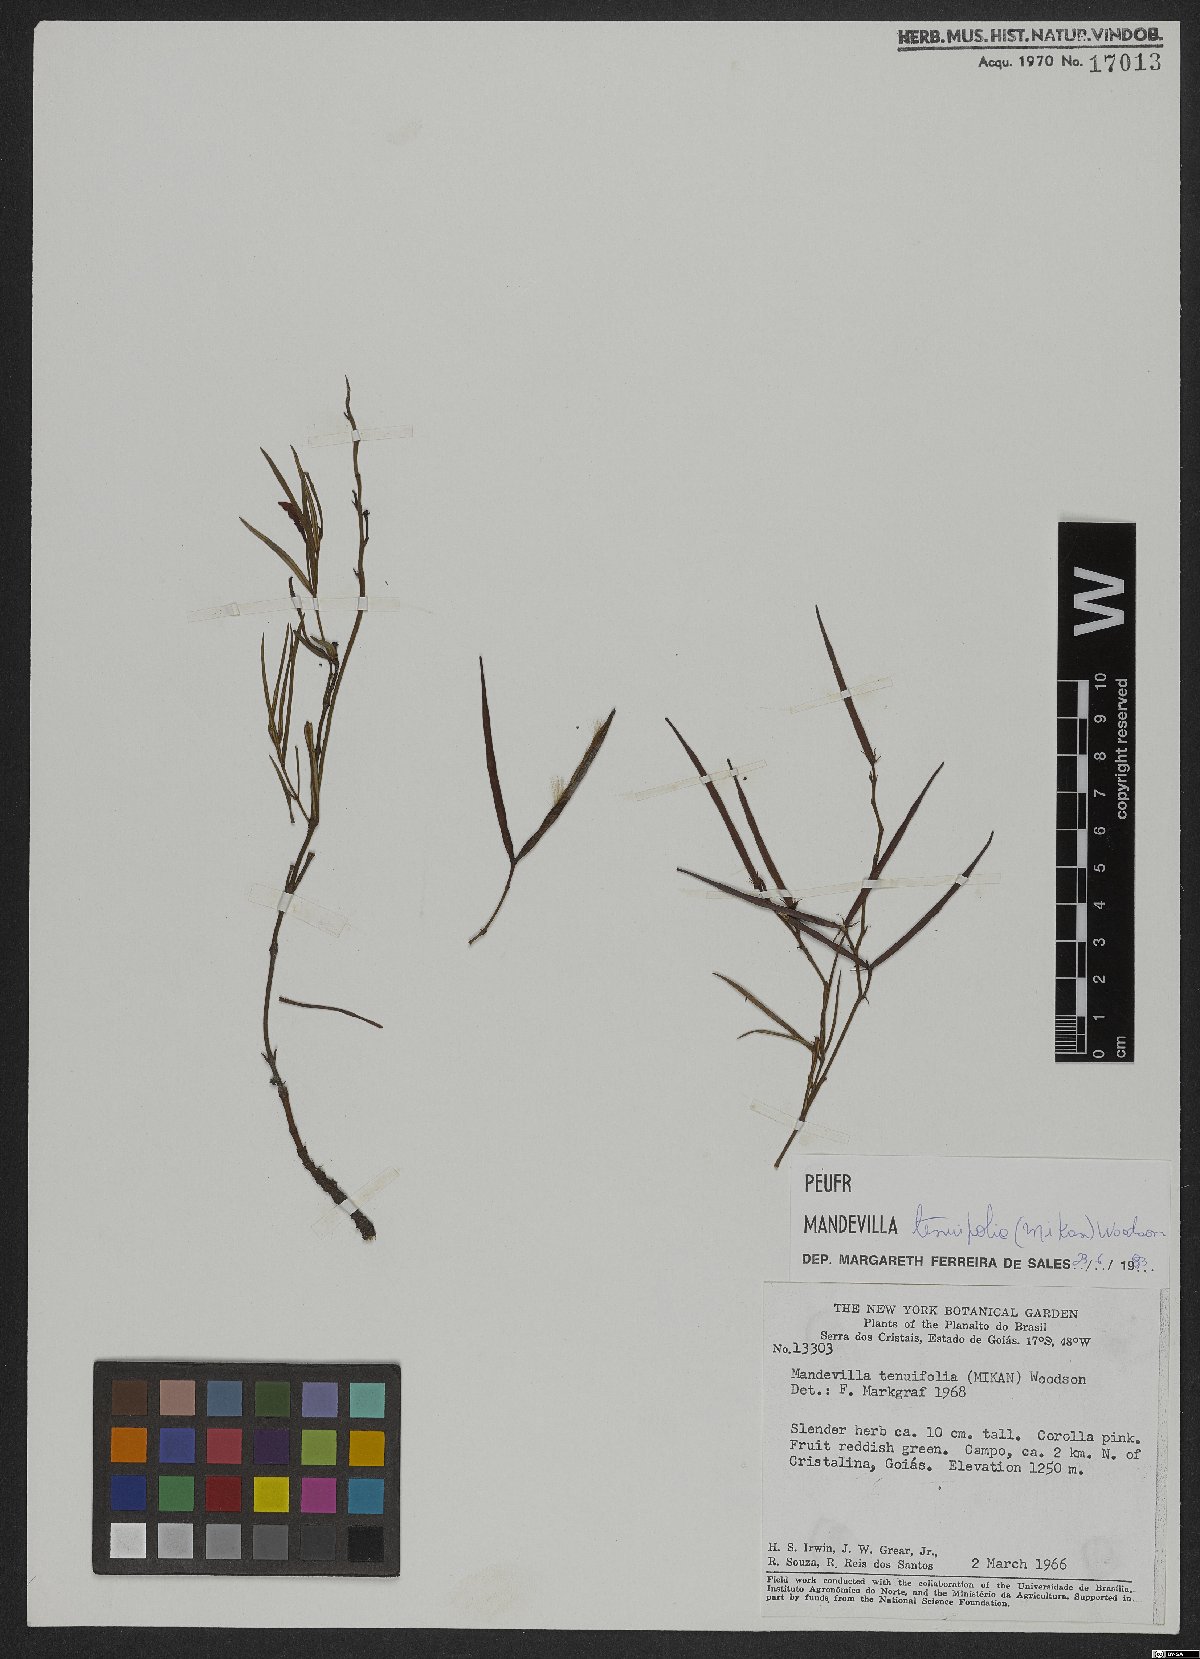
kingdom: Plantae
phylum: Tracheophyta
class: Magnoliopsida
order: Gentianales
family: Apocynaceae
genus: Mandevilla
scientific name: Mandevilla tenuifolia
